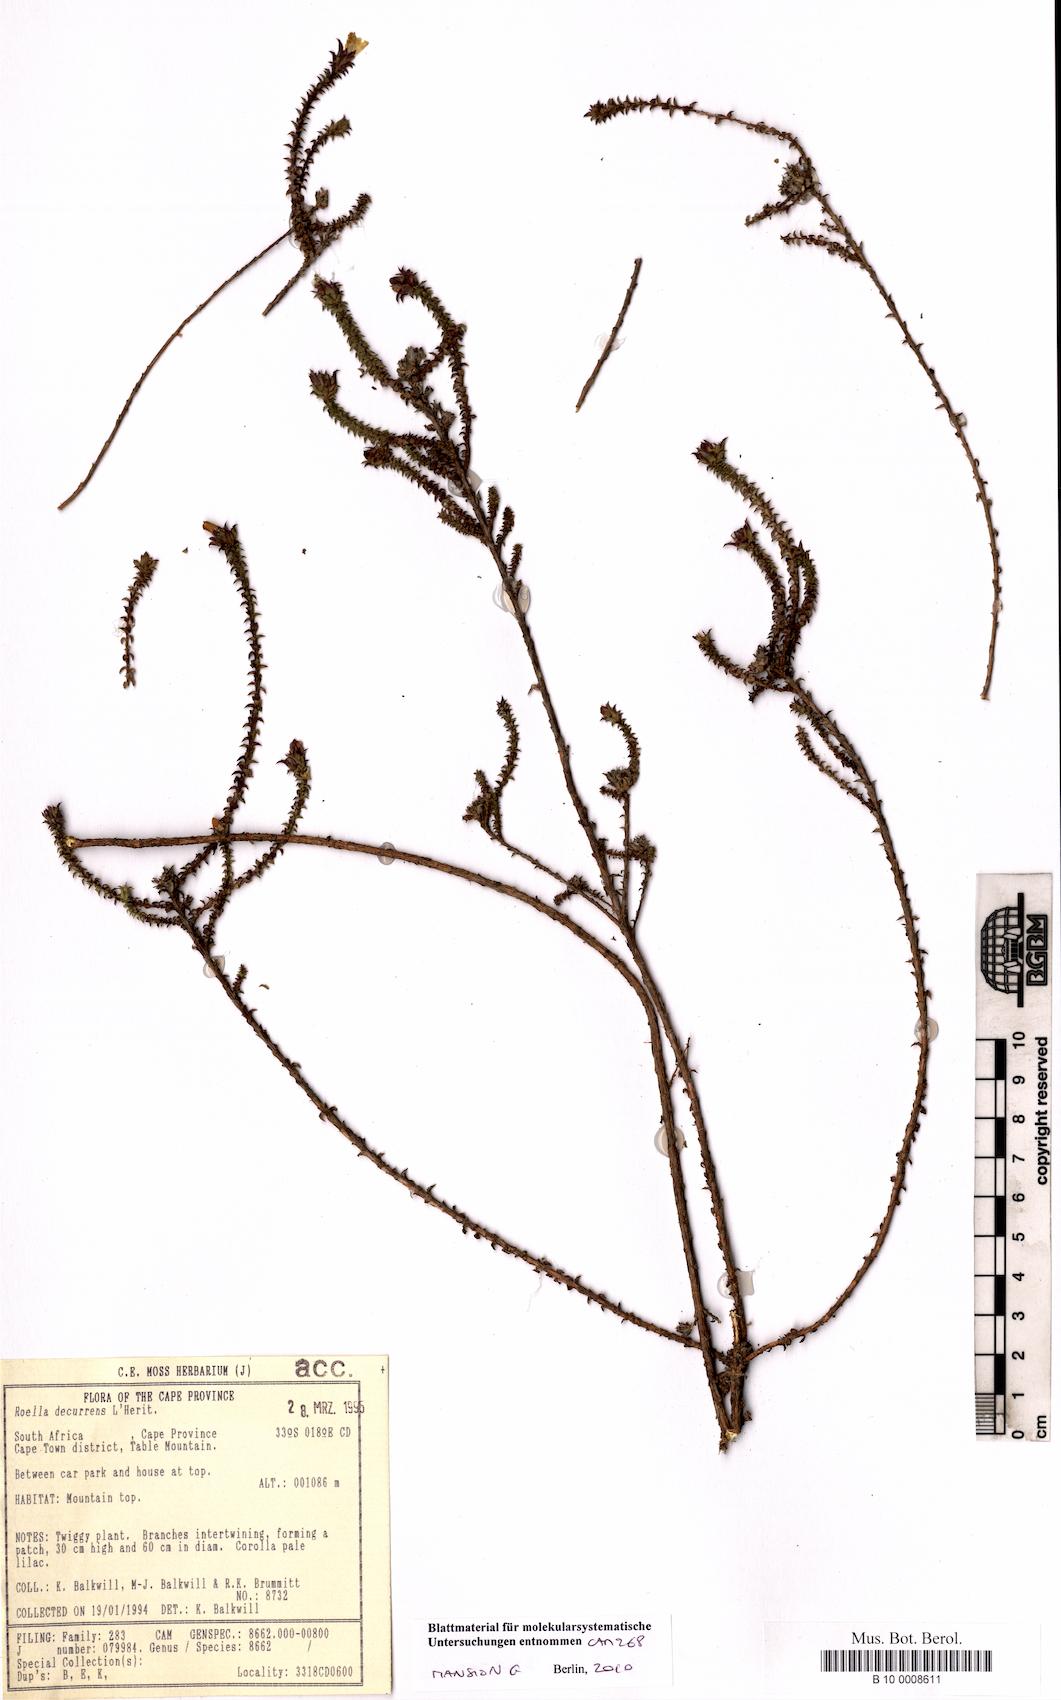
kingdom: Plantae
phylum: Tracheophyta
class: Magnoliopsida
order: Asterales
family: Campanulaceae
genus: Roella
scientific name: Roella decurrens
